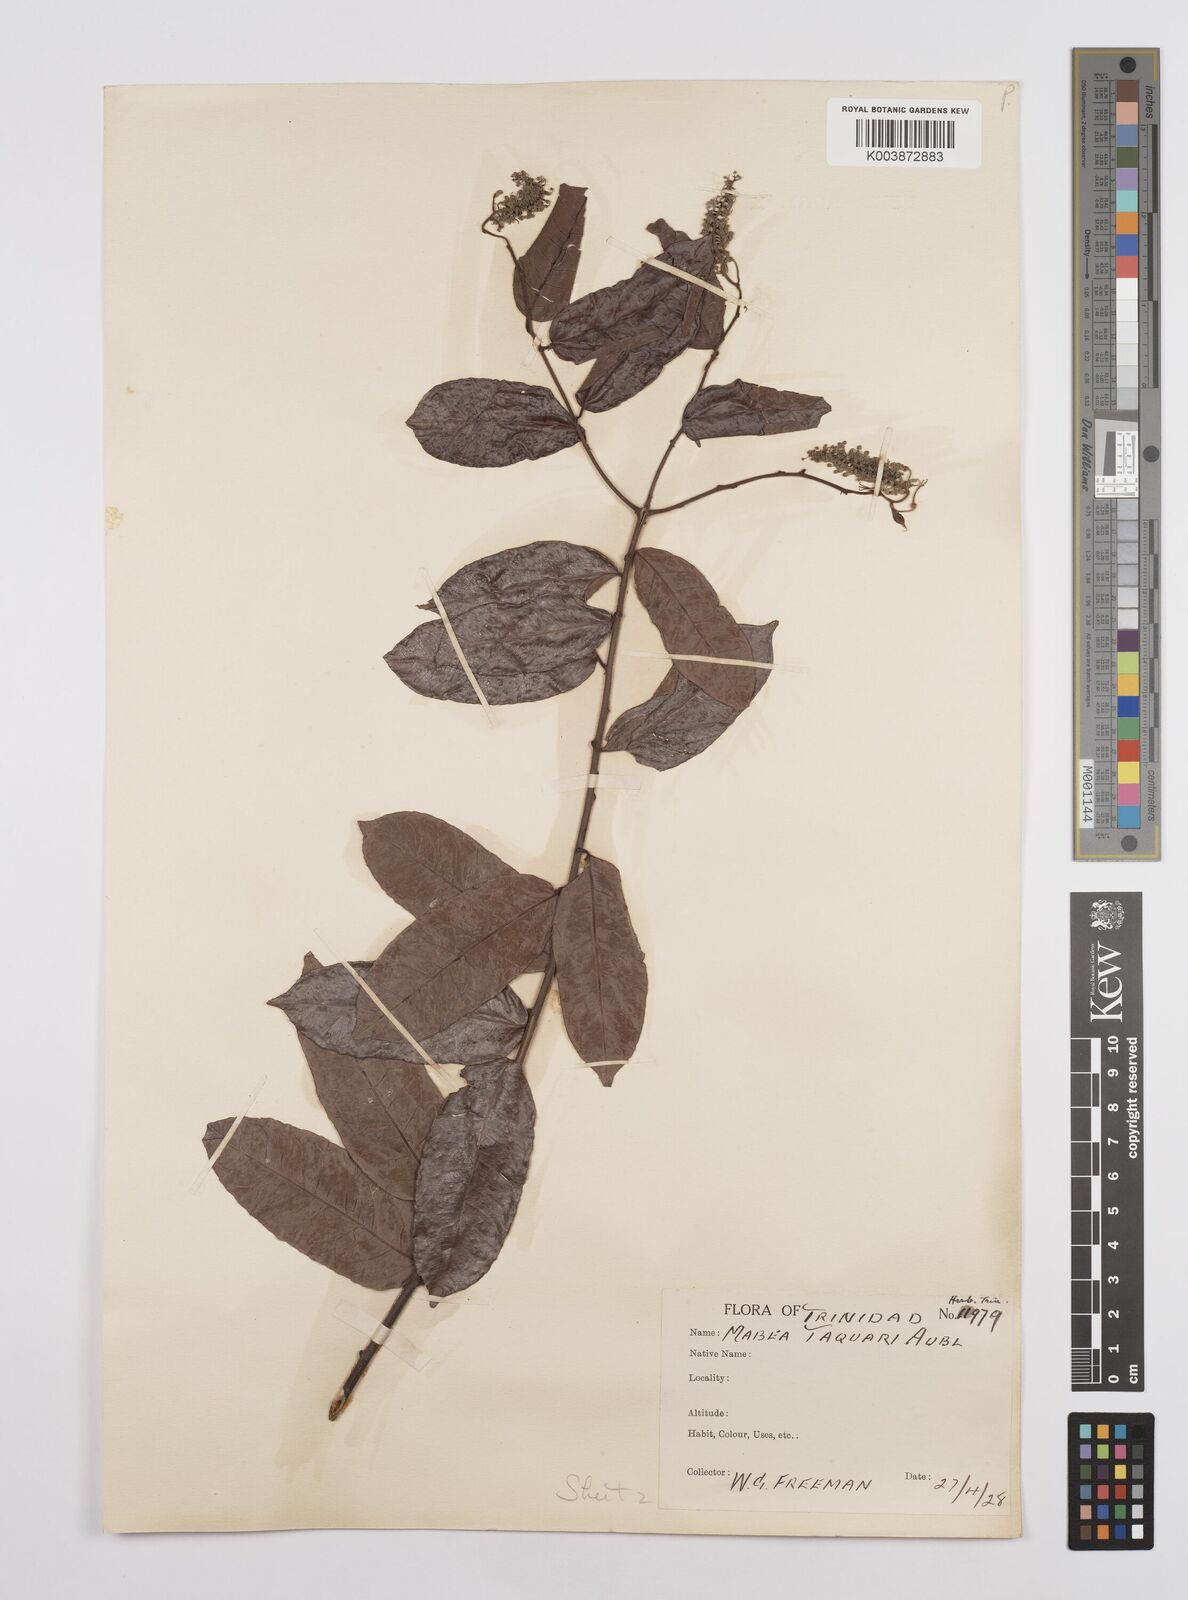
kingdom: Plantae
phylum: Tracheophyta
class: Magnoliopsida
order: Malpighiales
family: Euphorbiaceae
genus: Mabea
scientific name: Mabea taquari
